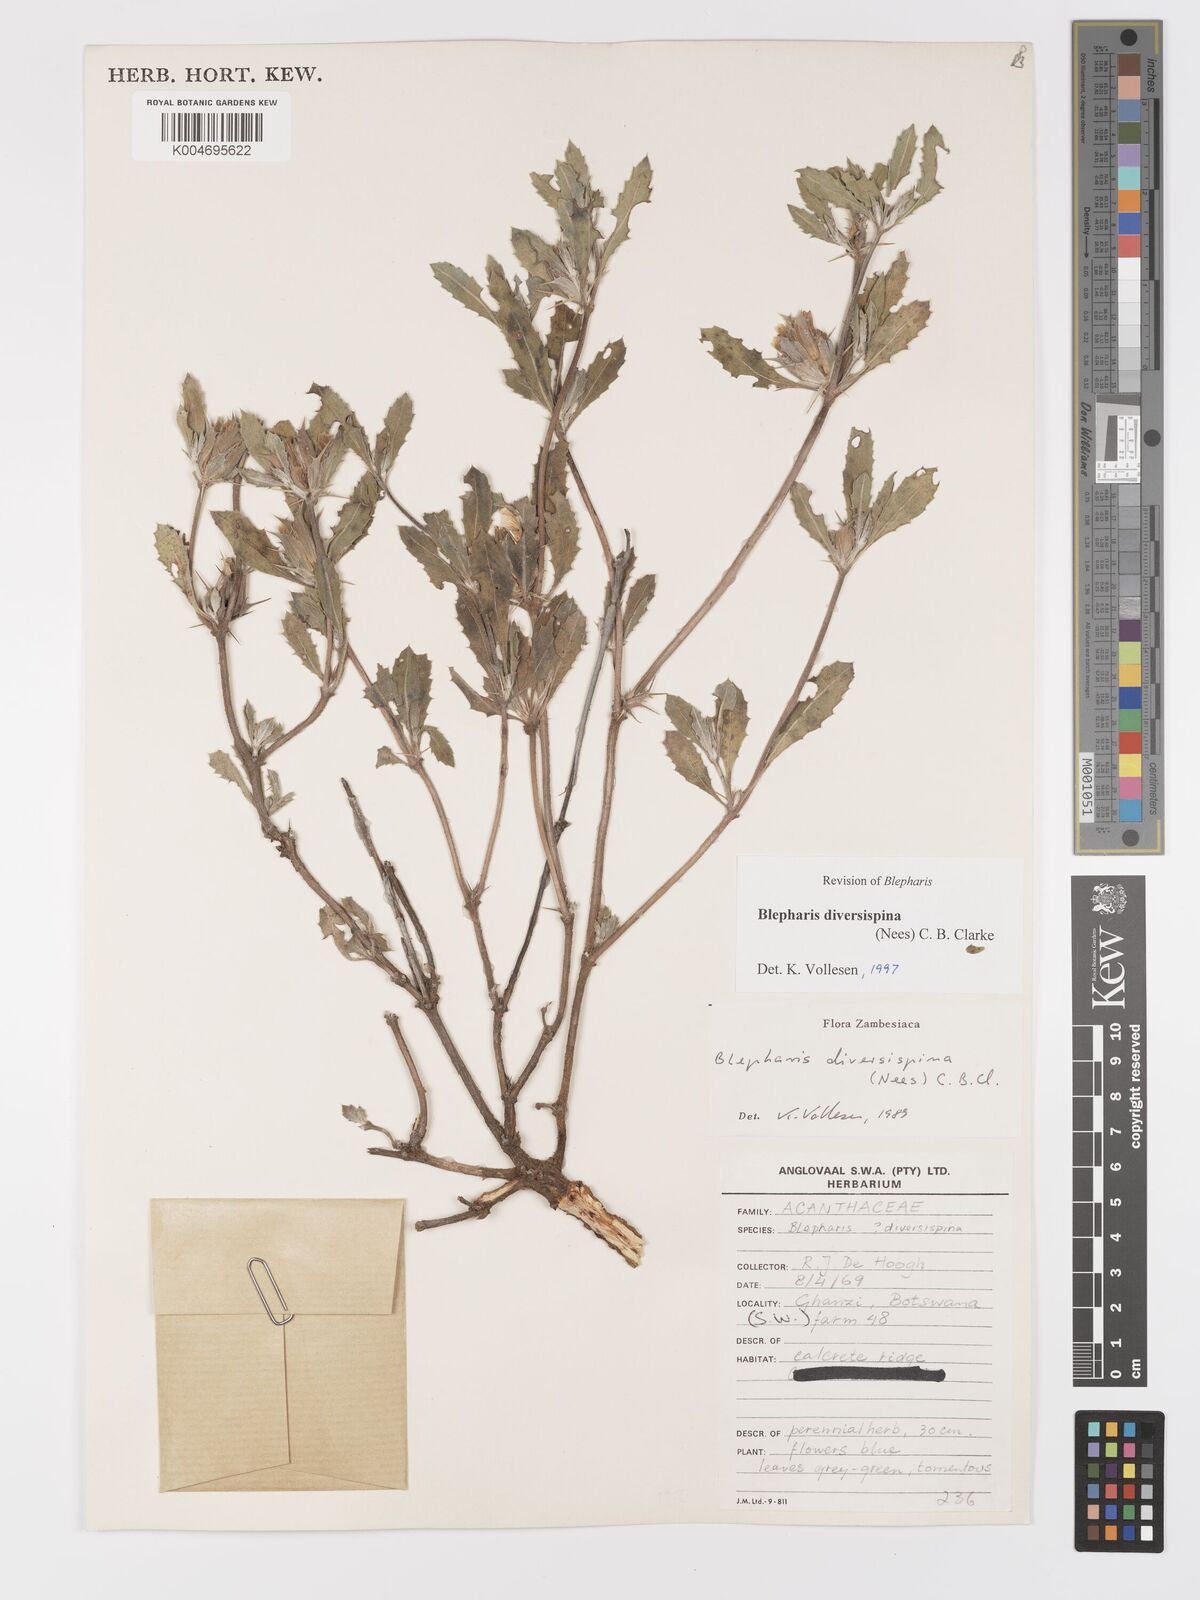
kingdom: Plantae
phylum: Tracheophyta
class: Magnoliopsida
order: Lamiales
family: Acanthaceae
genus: Blepharis
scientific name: Blepharis diversispina
